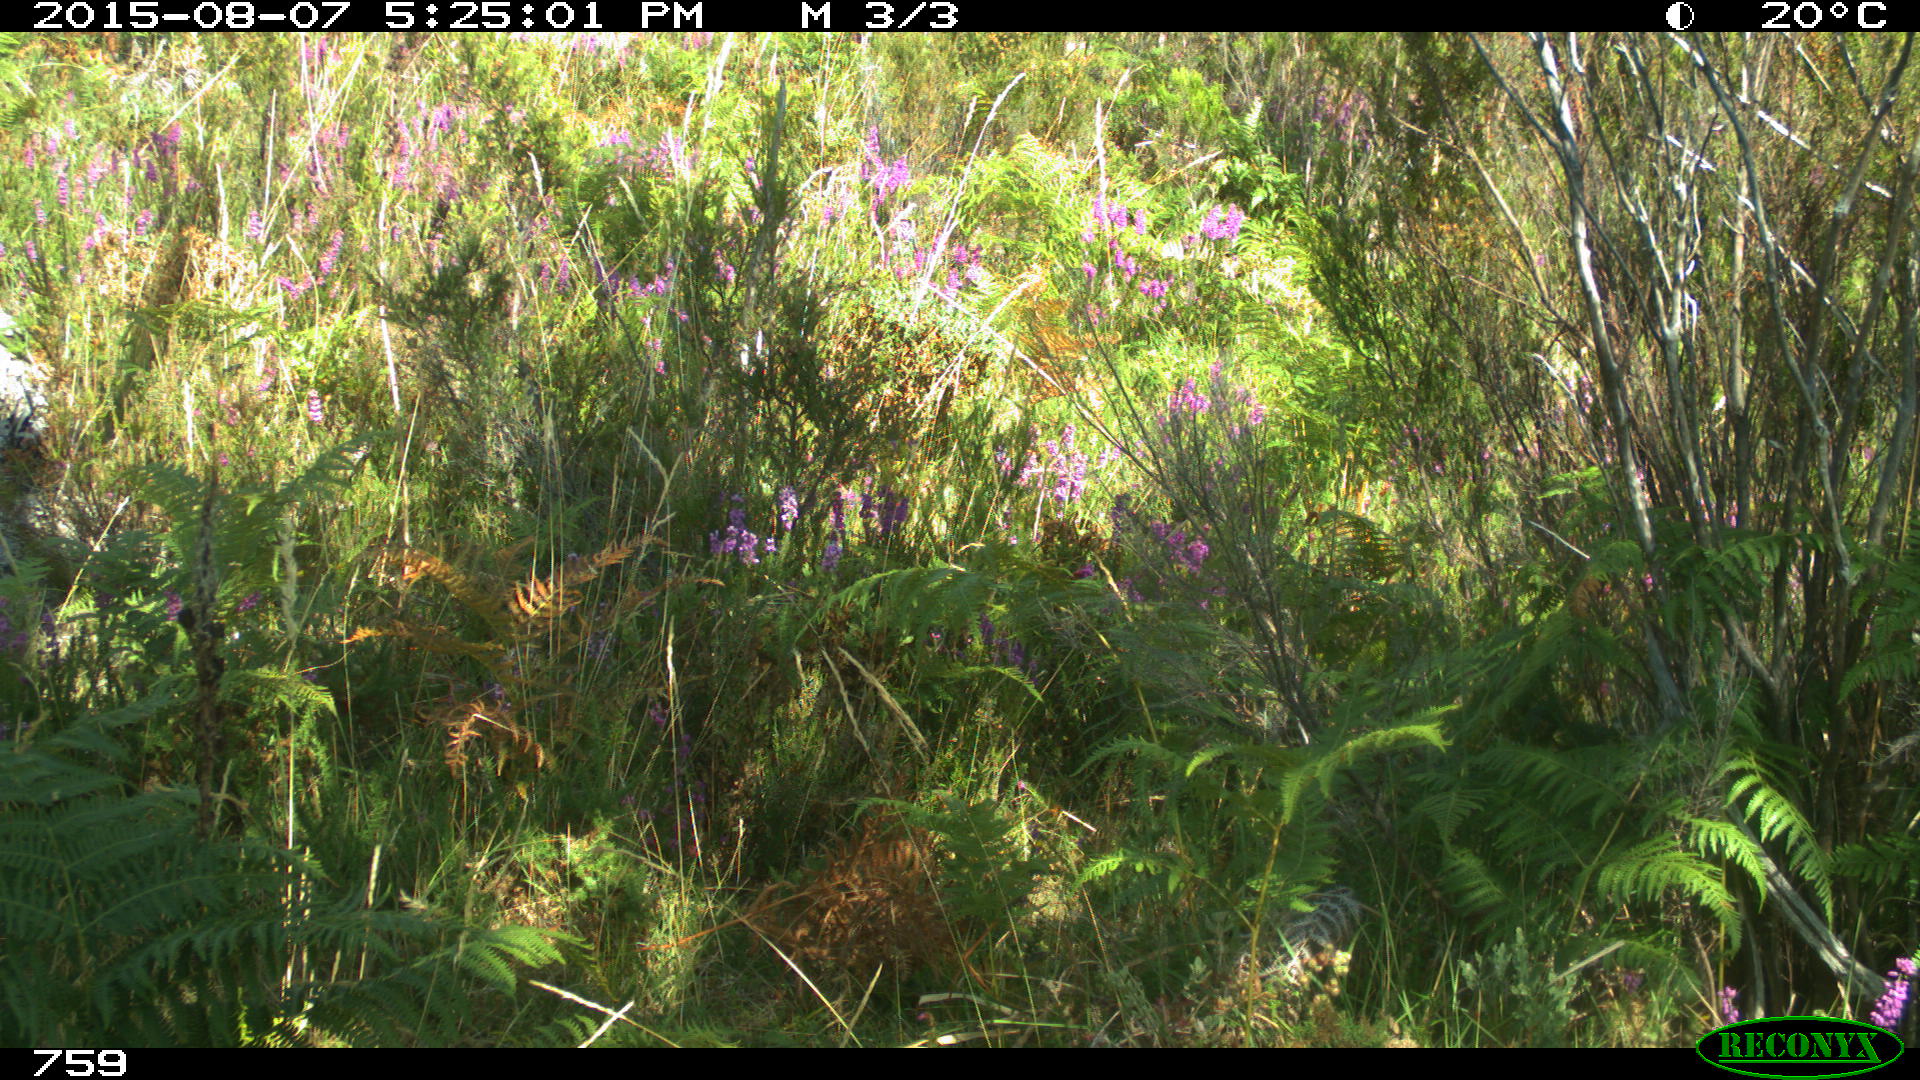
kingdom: Animalia
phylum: Chordata
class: Mammalia
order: Artiodactyla
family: Bovidae
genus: Bos
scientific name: Bos taurus
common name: Domesticated cattle
